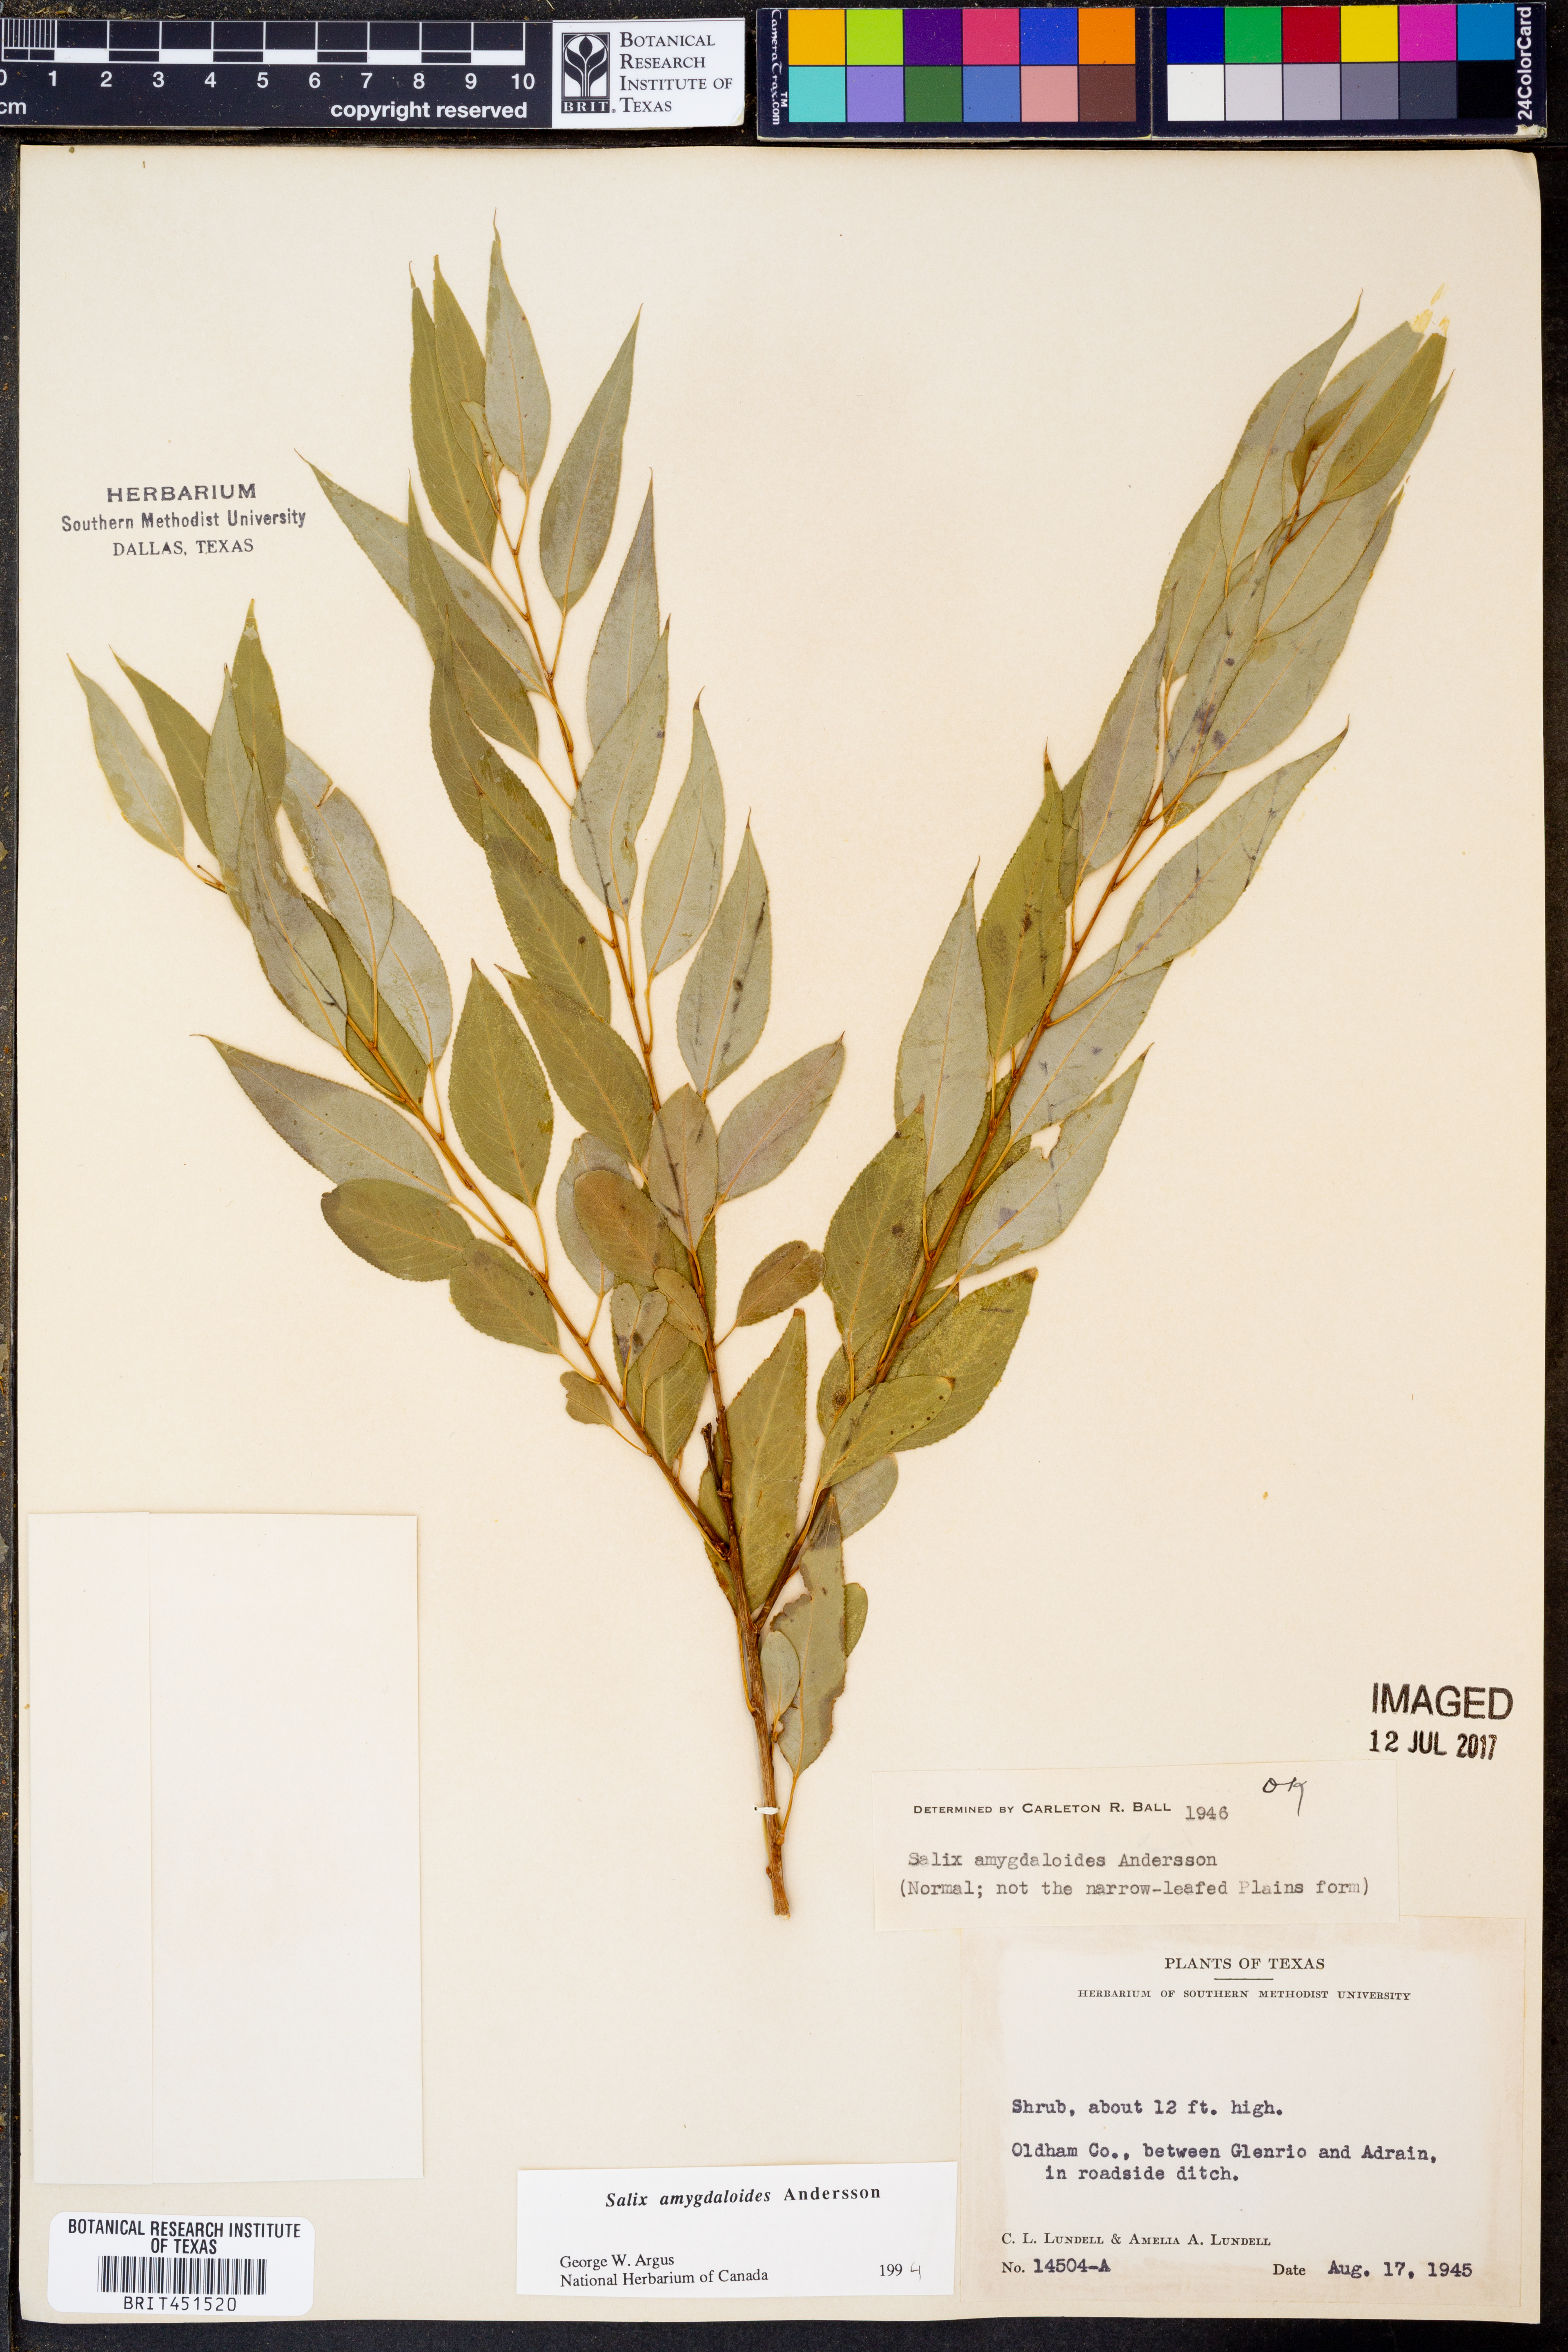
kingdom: Plantae
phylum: Tracheophyta
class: Magnoliopsida
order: Malpighiales
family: Salicaceae
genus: Salix
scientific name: Salix amygdaloides
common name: Peach leaf willow
